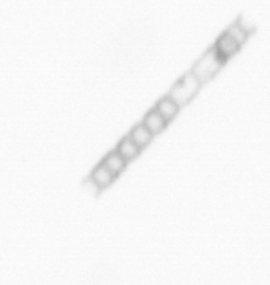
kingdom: Chromista
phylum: Ochrophyta
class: Bacillariophyceae
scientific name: Bacillariophyceae
